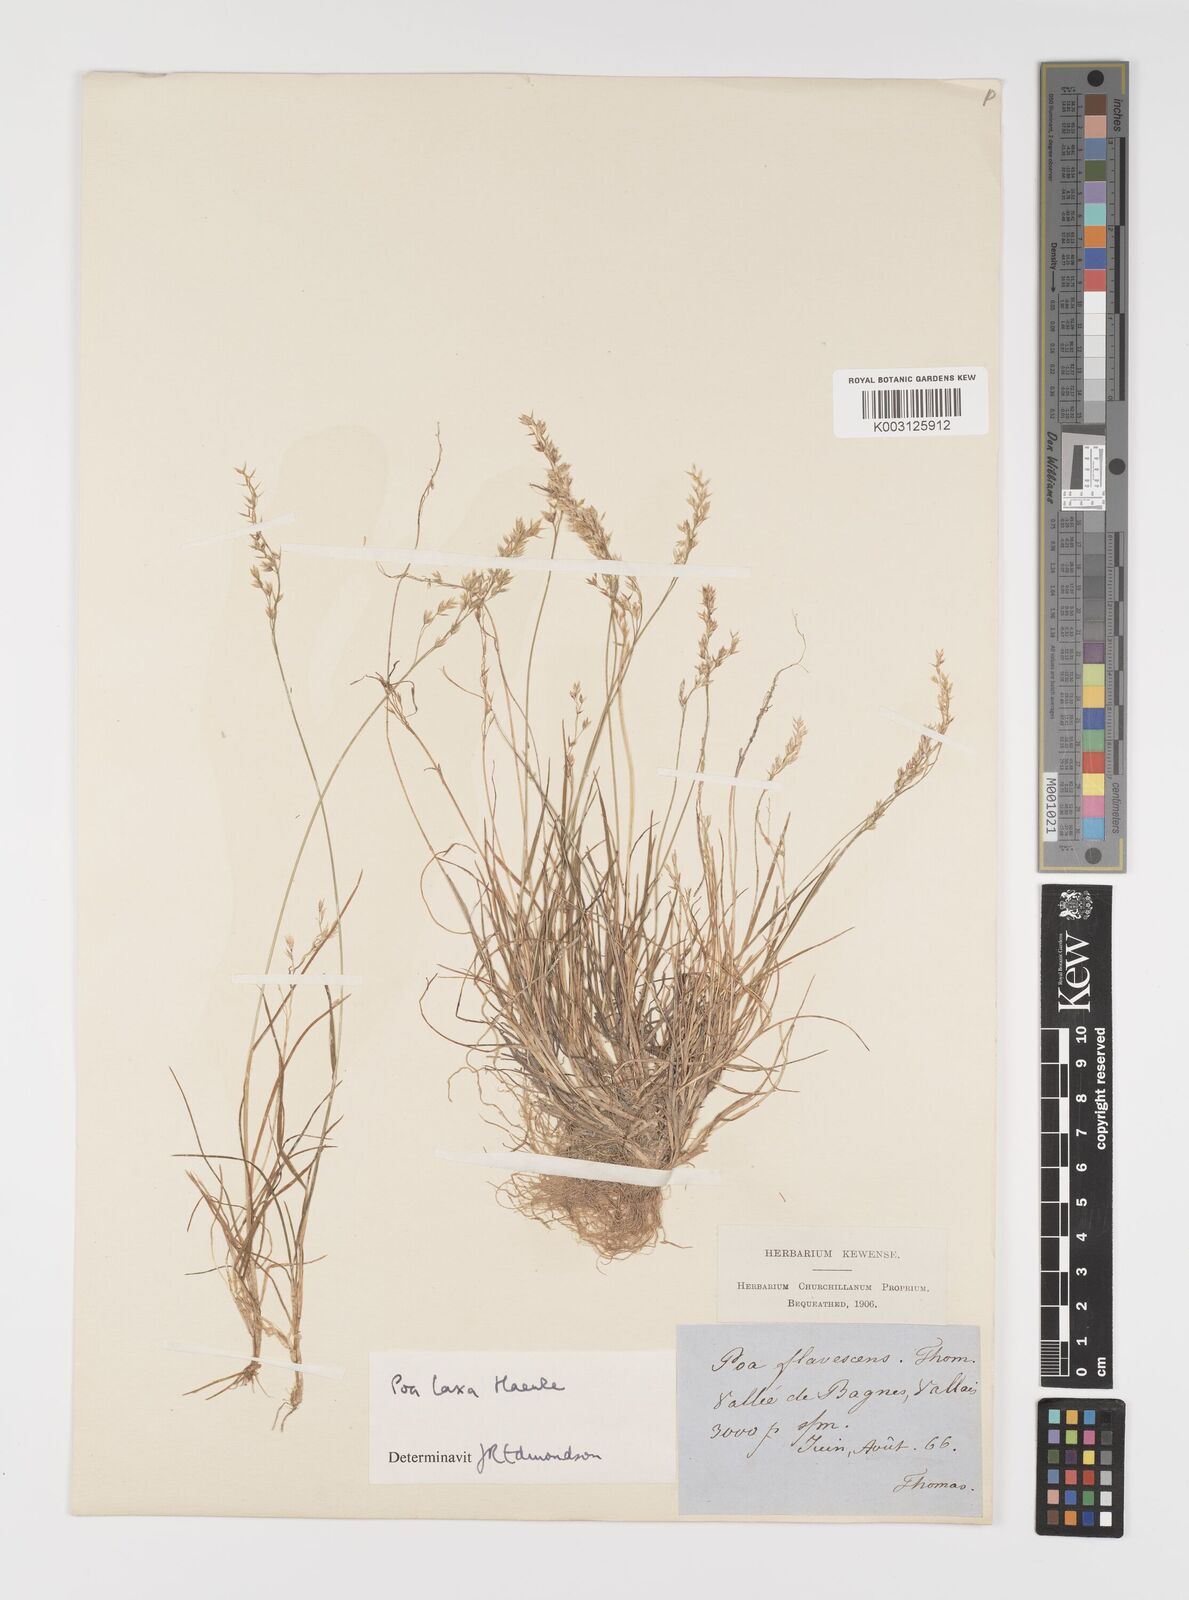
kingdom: Plantae
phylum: Tracheophyta
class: Liliopsida
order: Poales
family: Poaceae
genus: Poa
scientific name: Poa laxa
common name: Lax bluegrass
